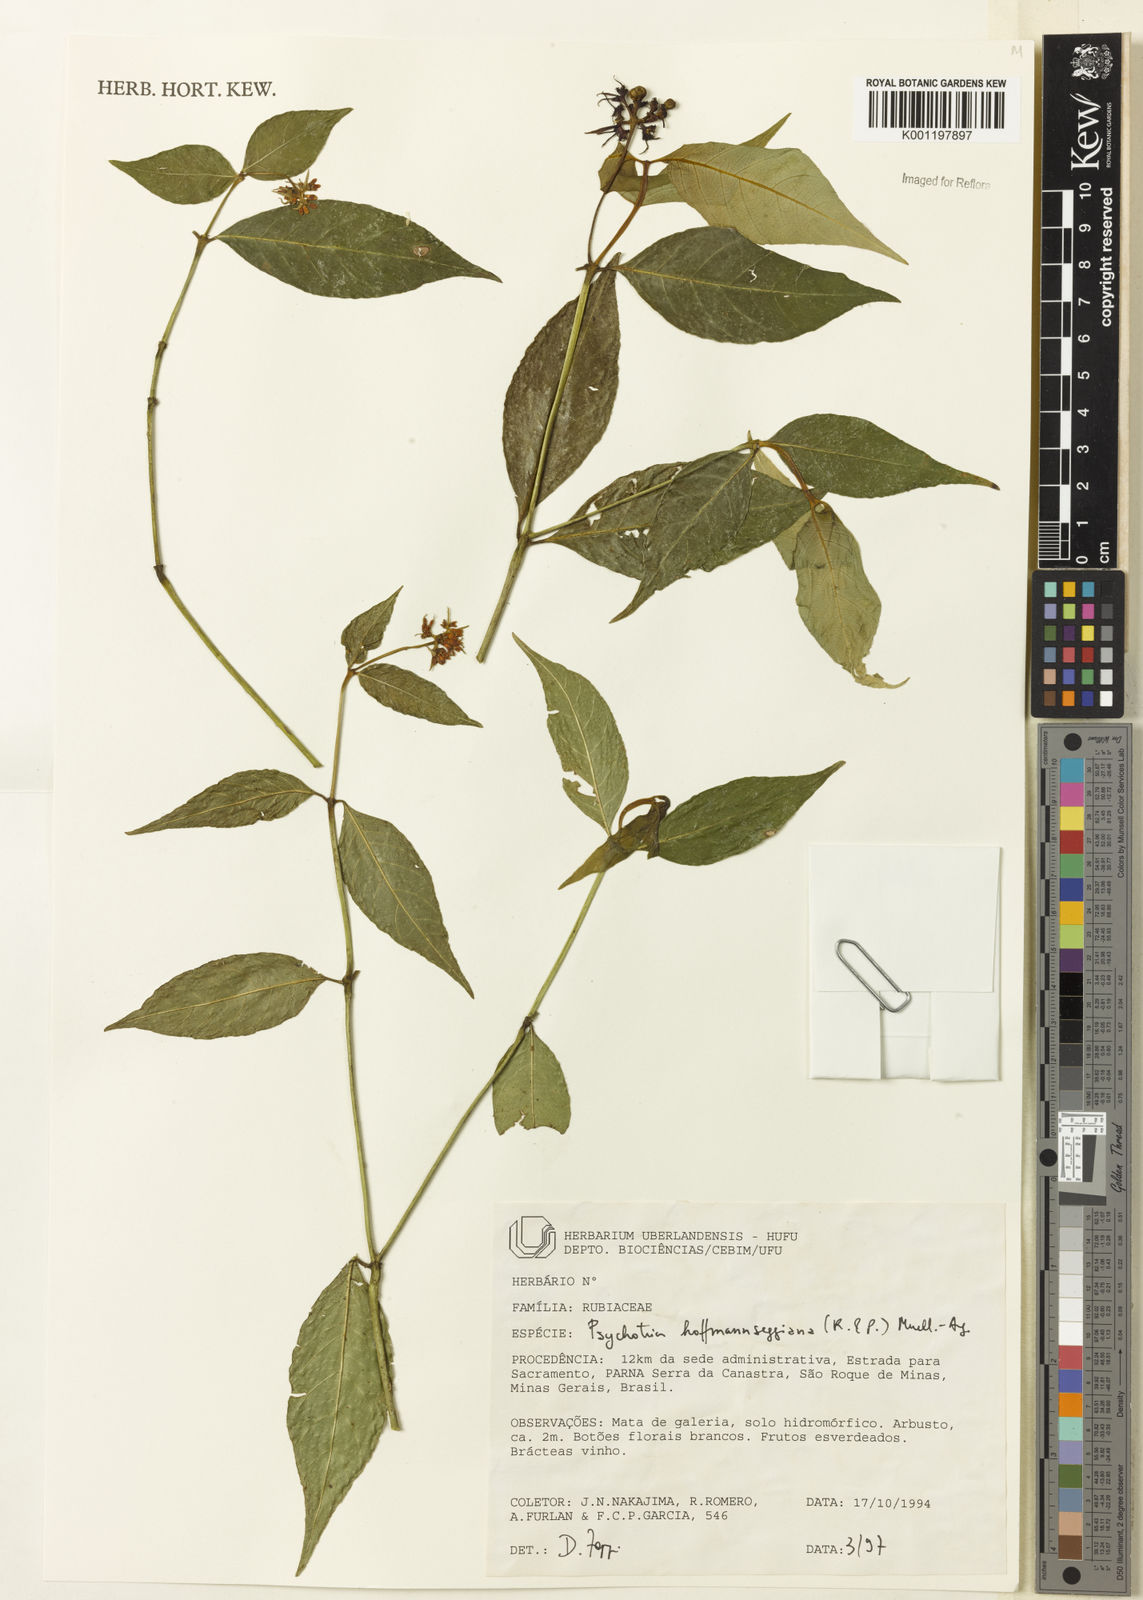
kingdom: Plantae
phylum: Tracheophyta
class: Magnoliopsida
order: Gentianales
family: Rubiaceae
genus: Psychotria
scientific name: Psychotria
